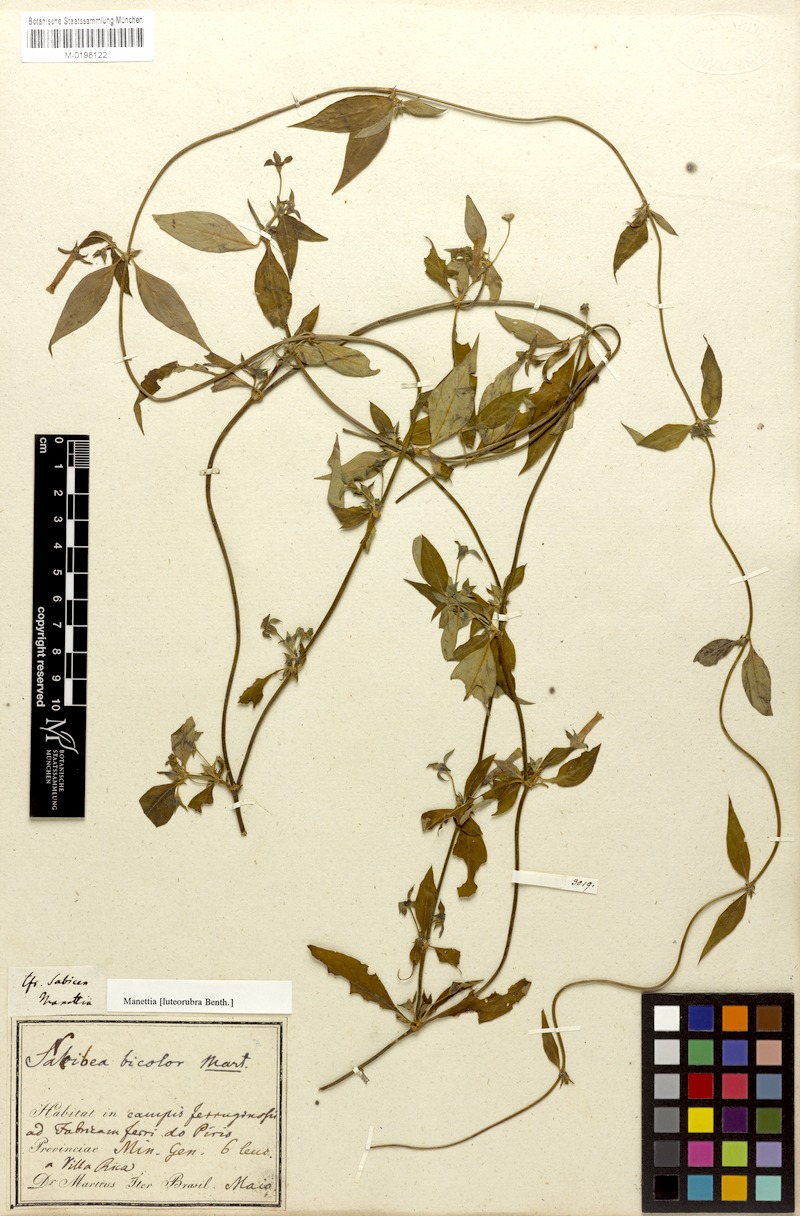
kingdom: Plantae
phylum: Tracheophyta
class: Magnoliopsida
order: Gentianales
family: Rubiaceae
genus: Manettia
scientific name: Manettia luteorubra
